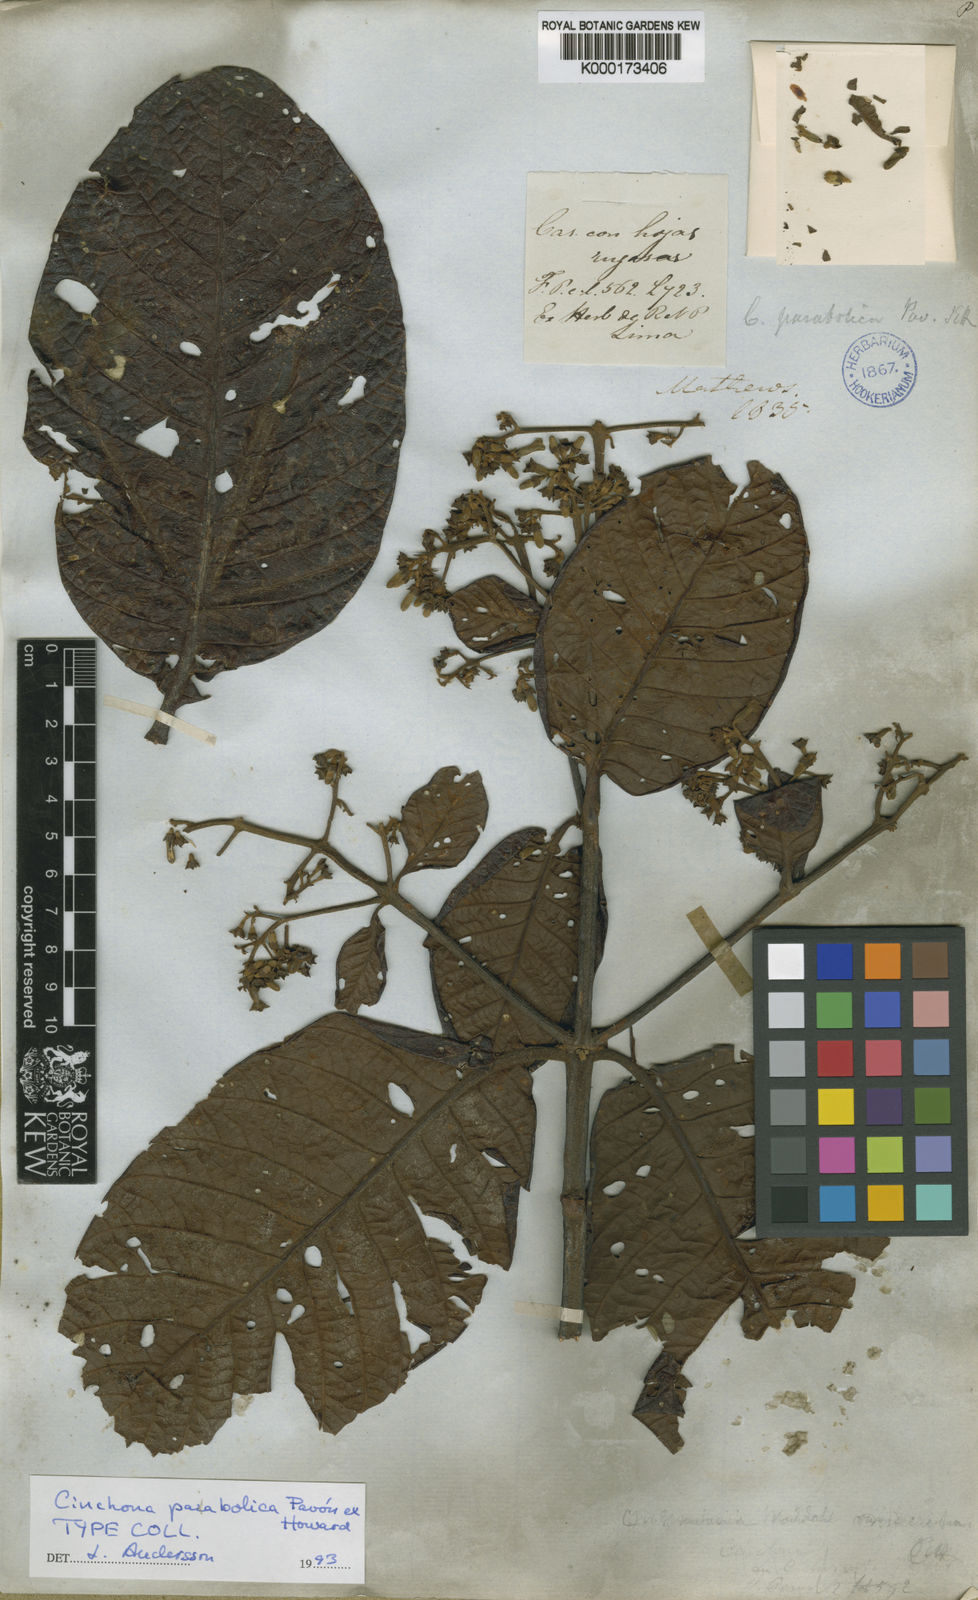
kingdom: Plantae
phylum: Tracheophyta
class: Magnoliopsida
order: Gentianales
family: Rubiaceae
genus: Cinchona
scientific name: Cinchona parabolica
